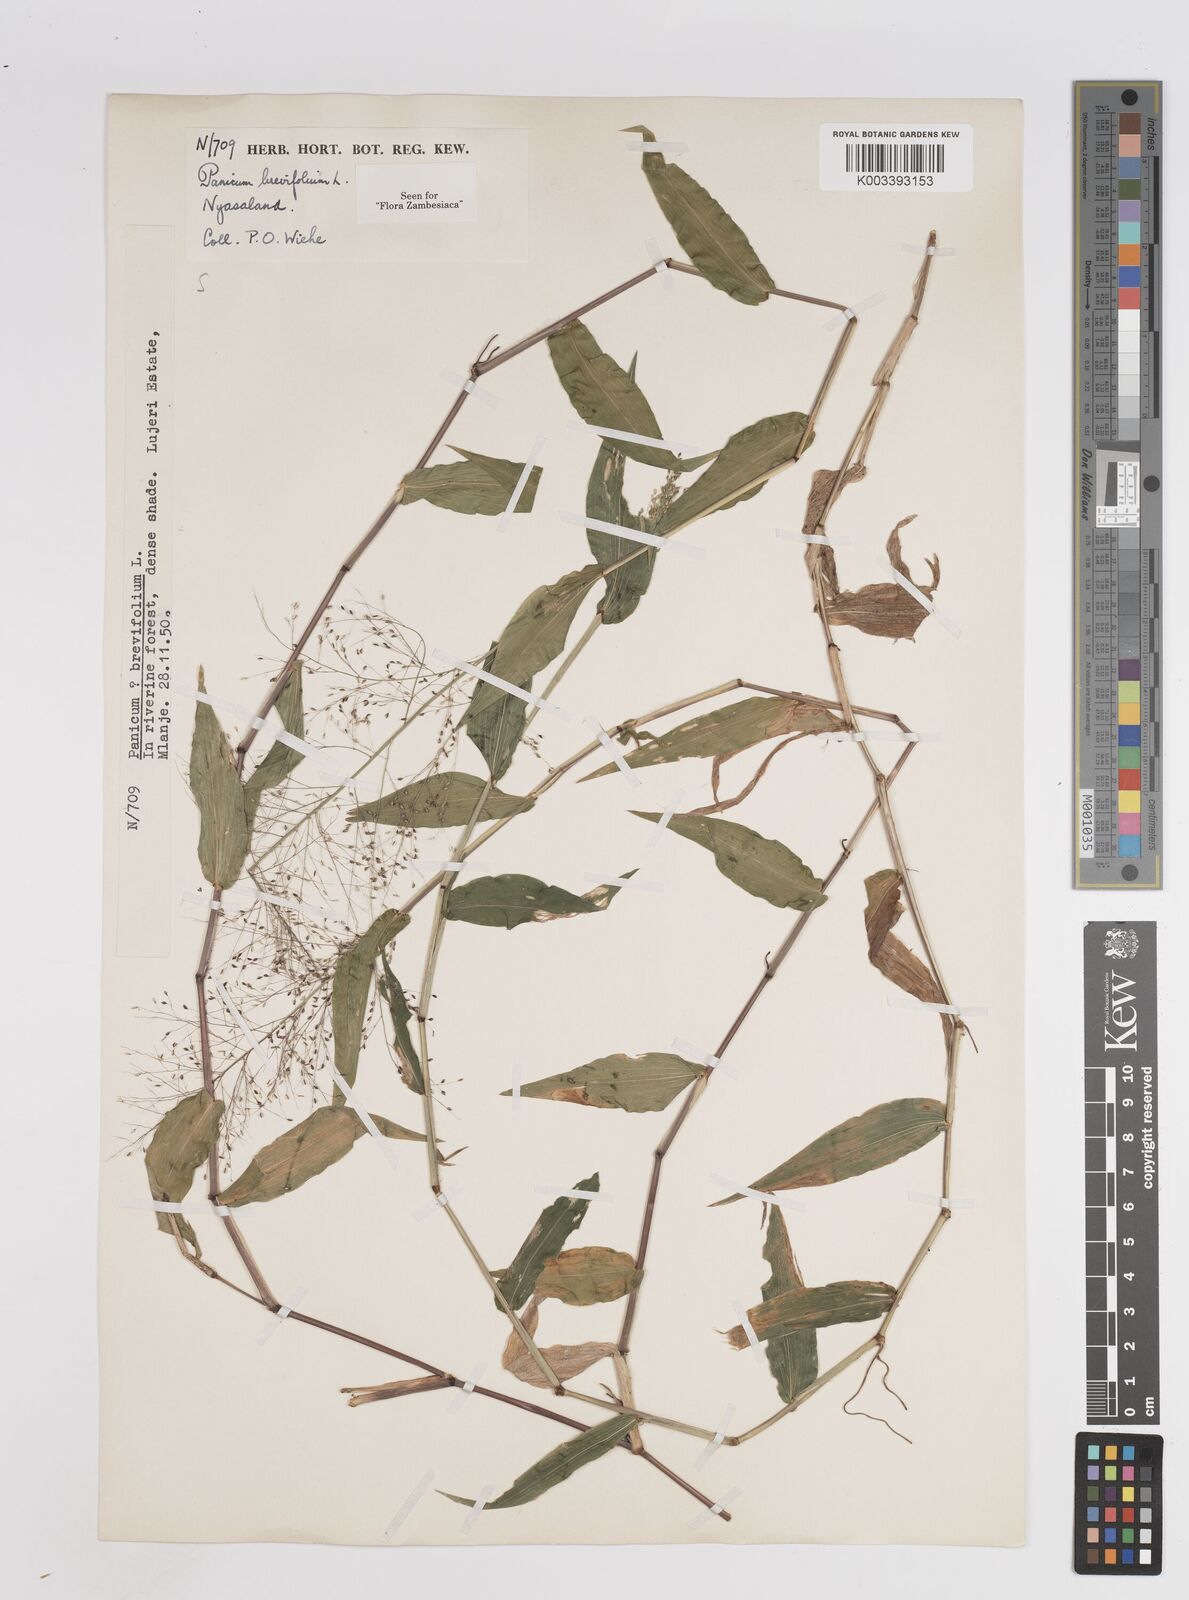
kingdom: Plantae
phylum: Tracheophyta
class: Liliopsida
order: Poales
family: Poaceae
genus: Panicum
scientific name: Panicum brevifolium
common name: Shortleaf panic grass
